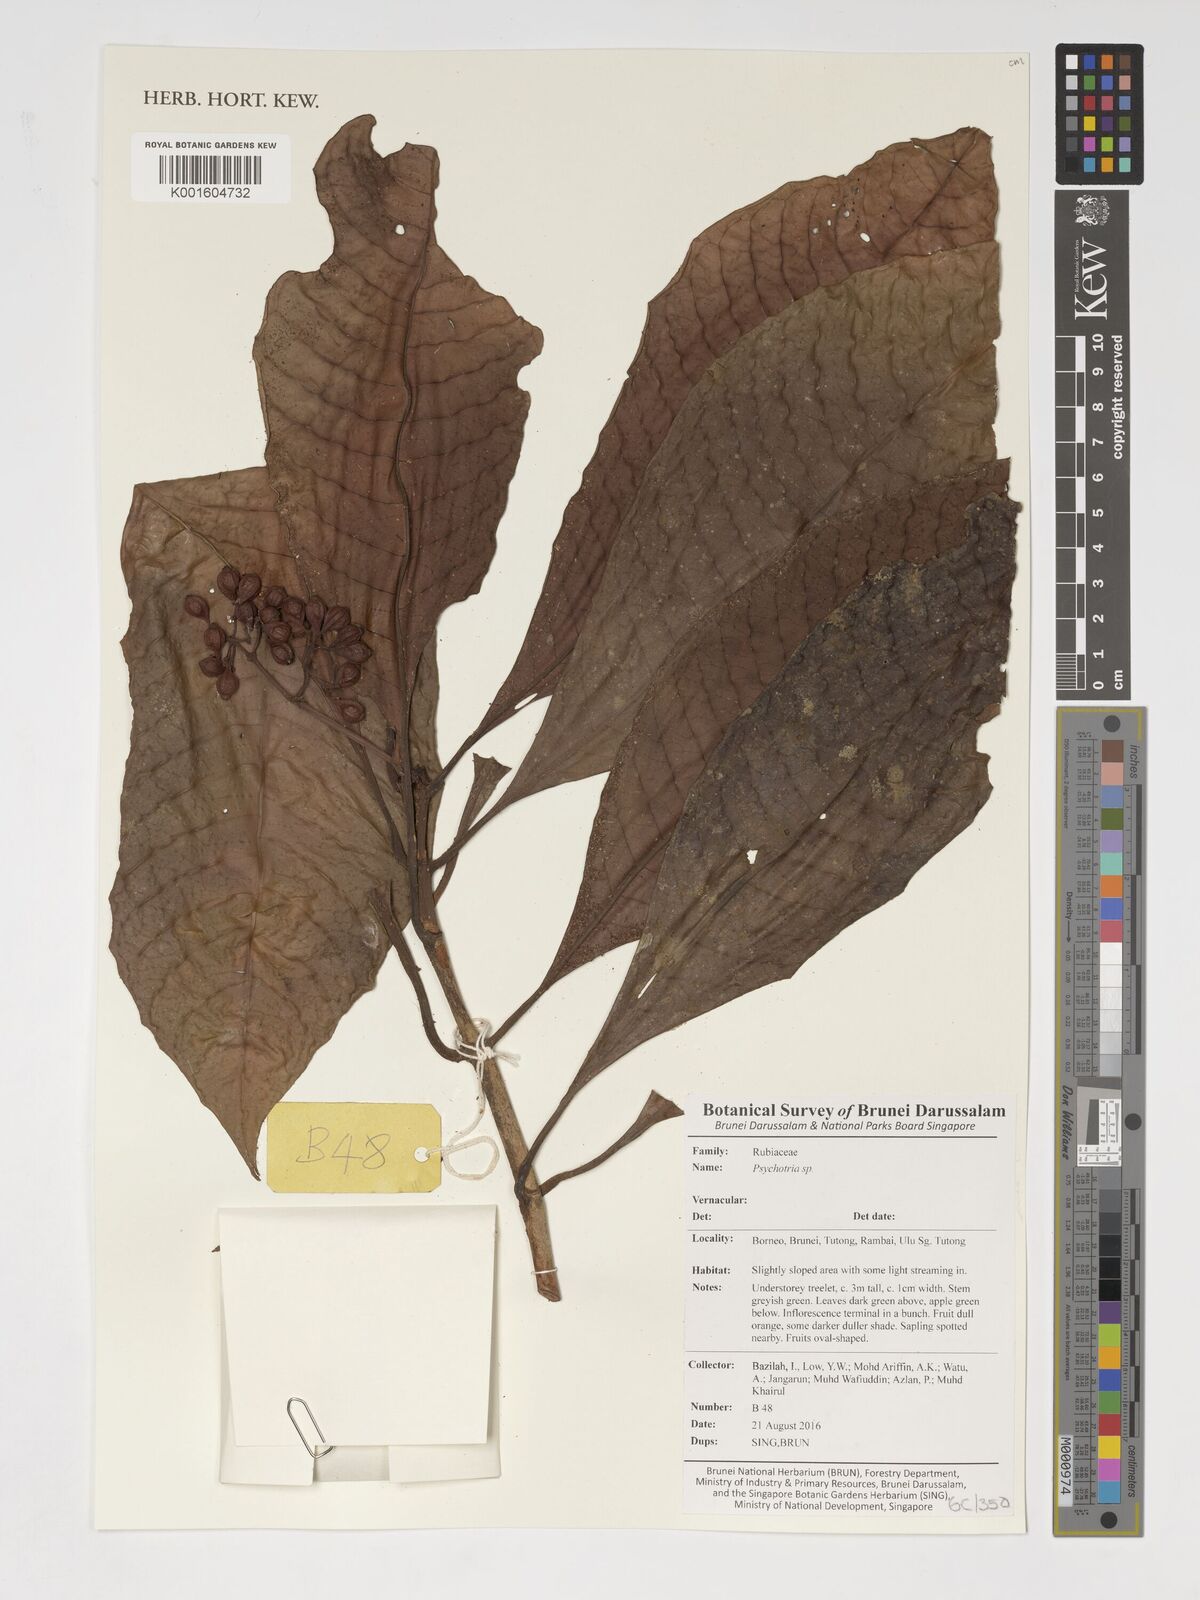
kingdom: Plantae
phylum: Tracheophyta
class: Magnoliopsida
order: Gentianales
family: Rubiaceae
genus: Psychotria
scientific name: Psychotria
